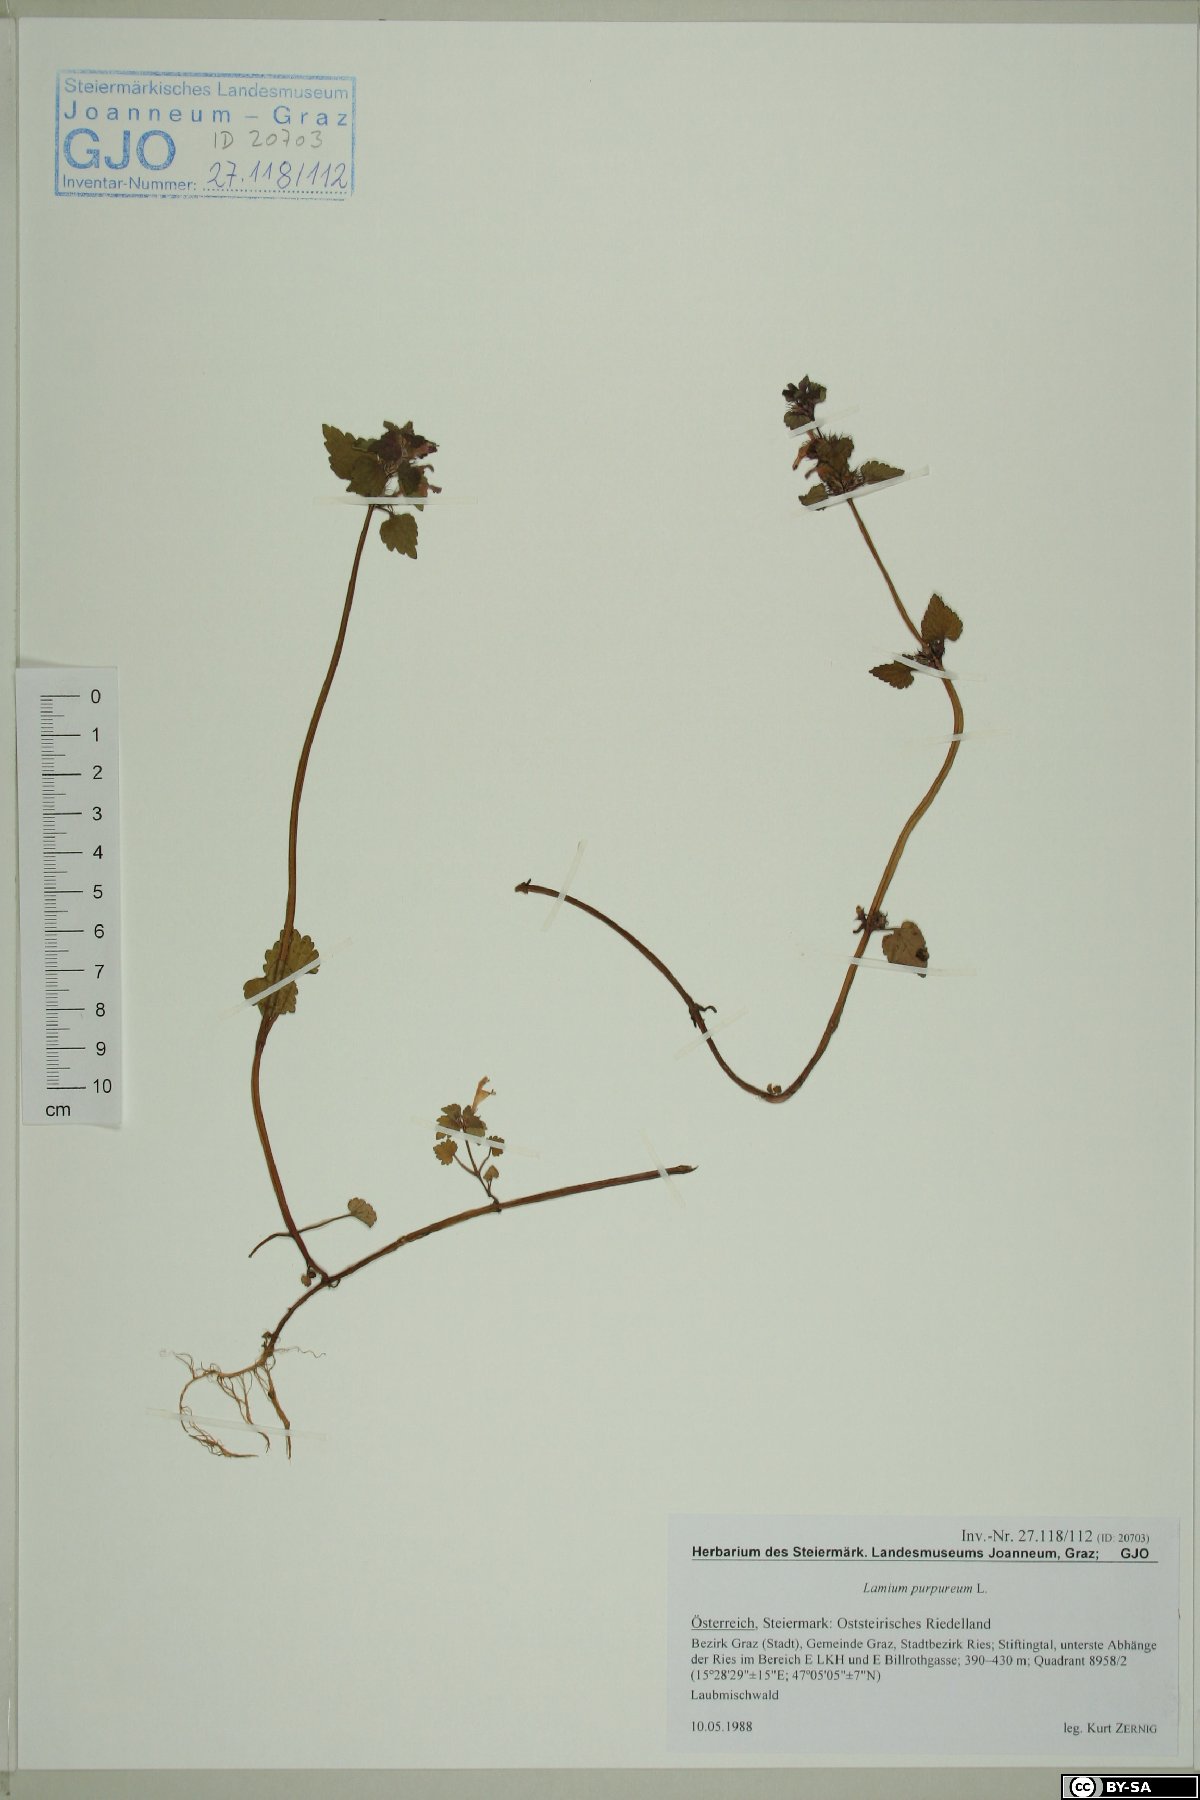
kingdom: Plantae
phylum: Tracheophyta
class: Magnoliopsida
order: Lamiales
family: Lamiaceae
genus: Lamium
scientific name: Lamium purpureum
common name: Red dead-nettle
